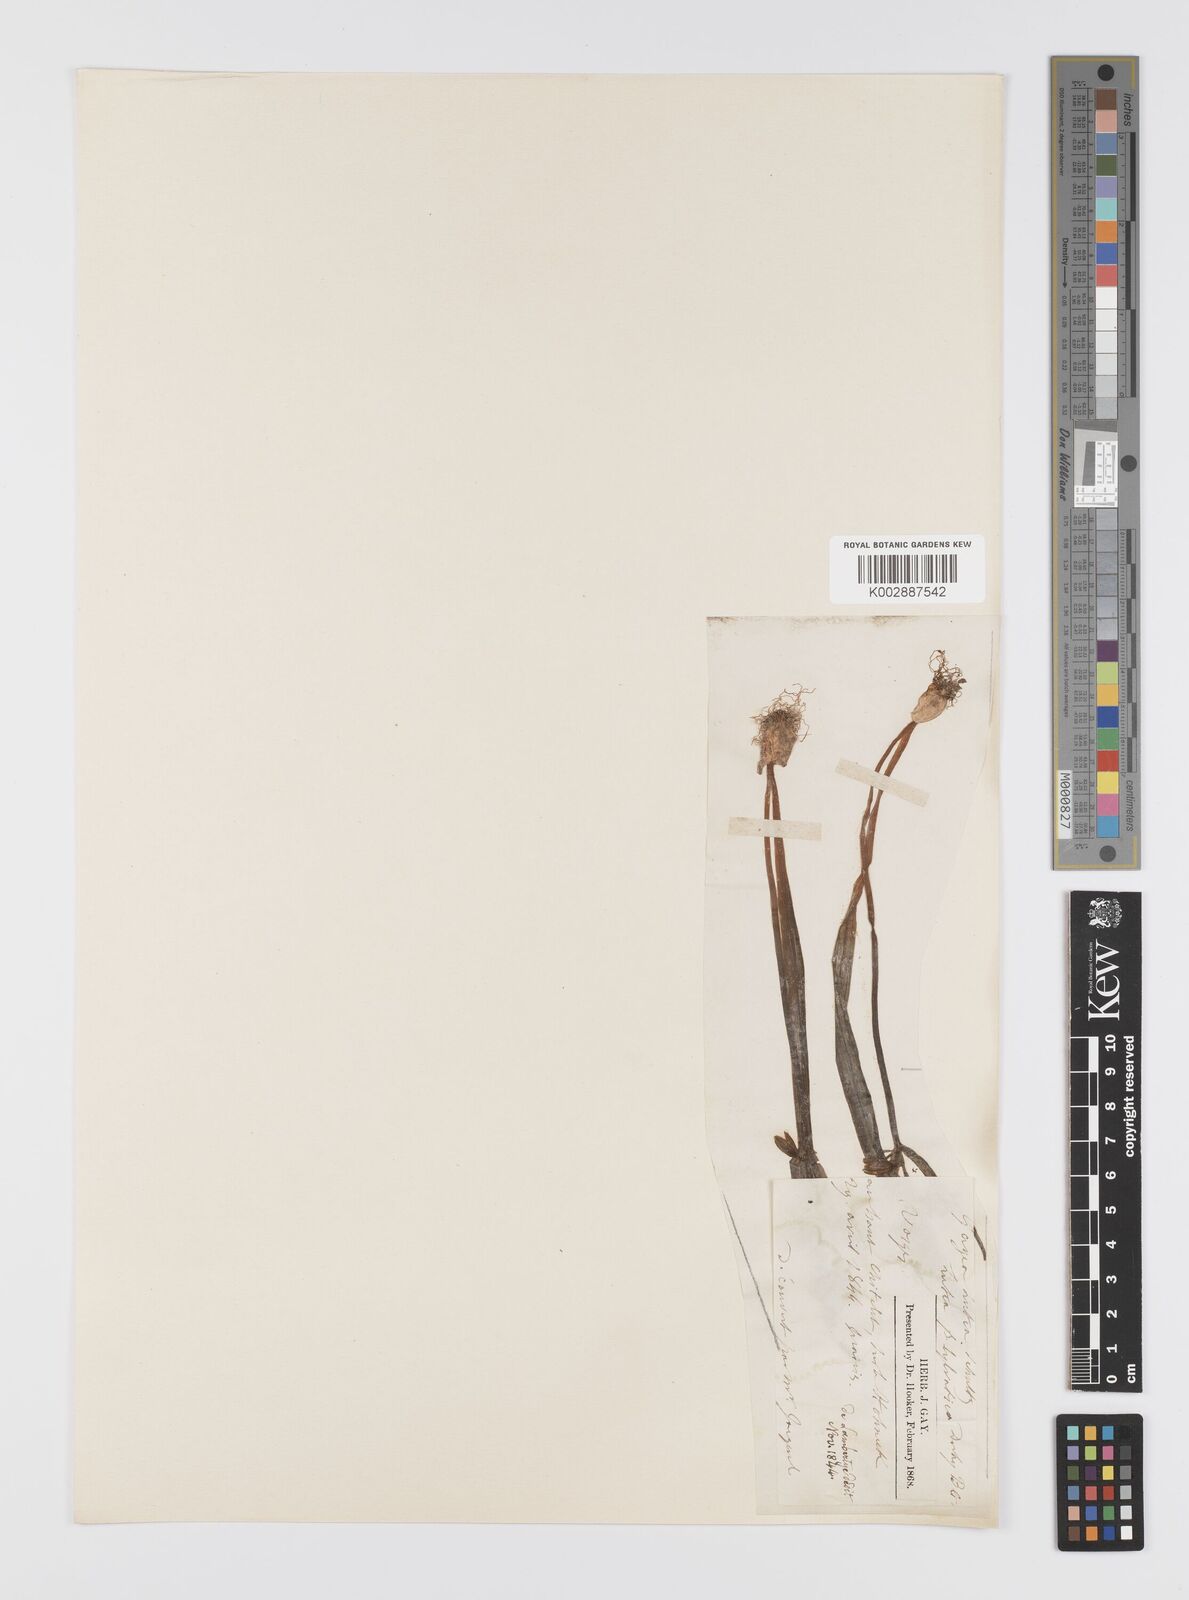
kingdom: Plantae
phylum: Tracheophyta
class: Liliopsida
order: Liliales
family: Liliaceae
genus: Gagea
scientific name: Gagea lutea
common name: Yellow star-of-bethlehem
